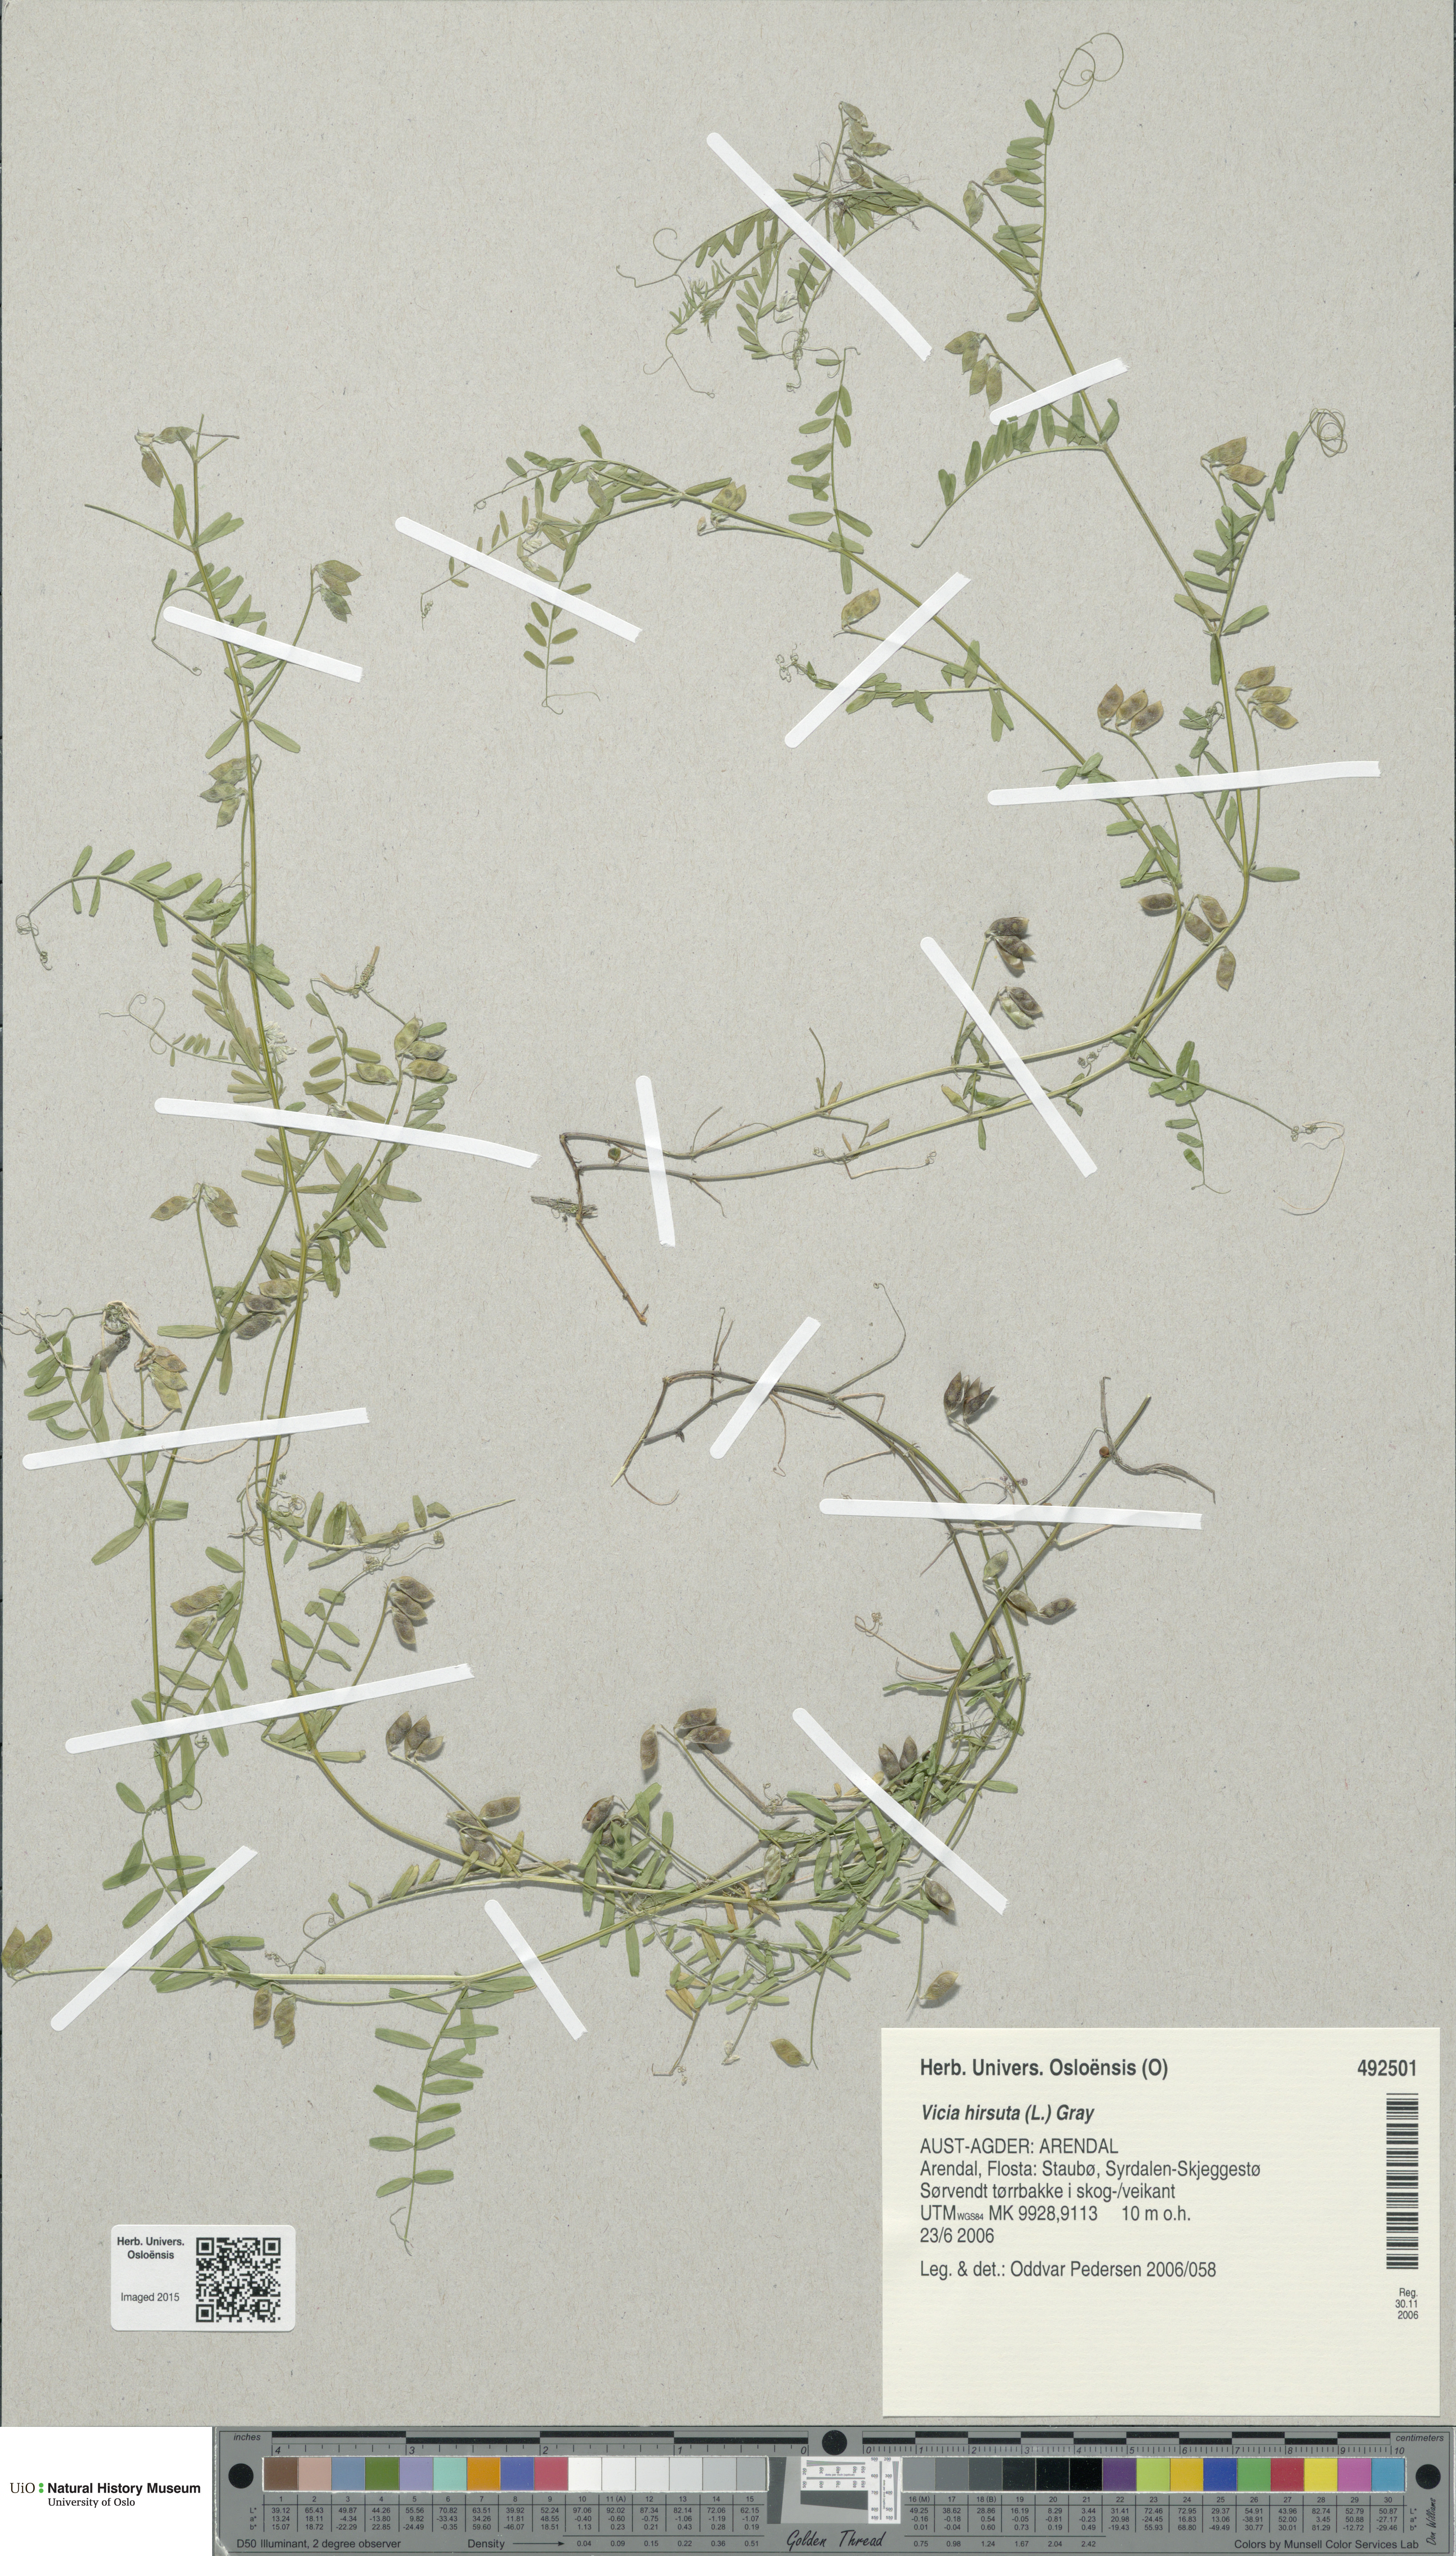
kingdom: Plantae
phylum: Tracheophyta
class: Magnoliopsida
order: Fabales
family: Fabaceae
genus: Vicia
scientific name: Vicia hirsuta
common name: Tiny vetch
